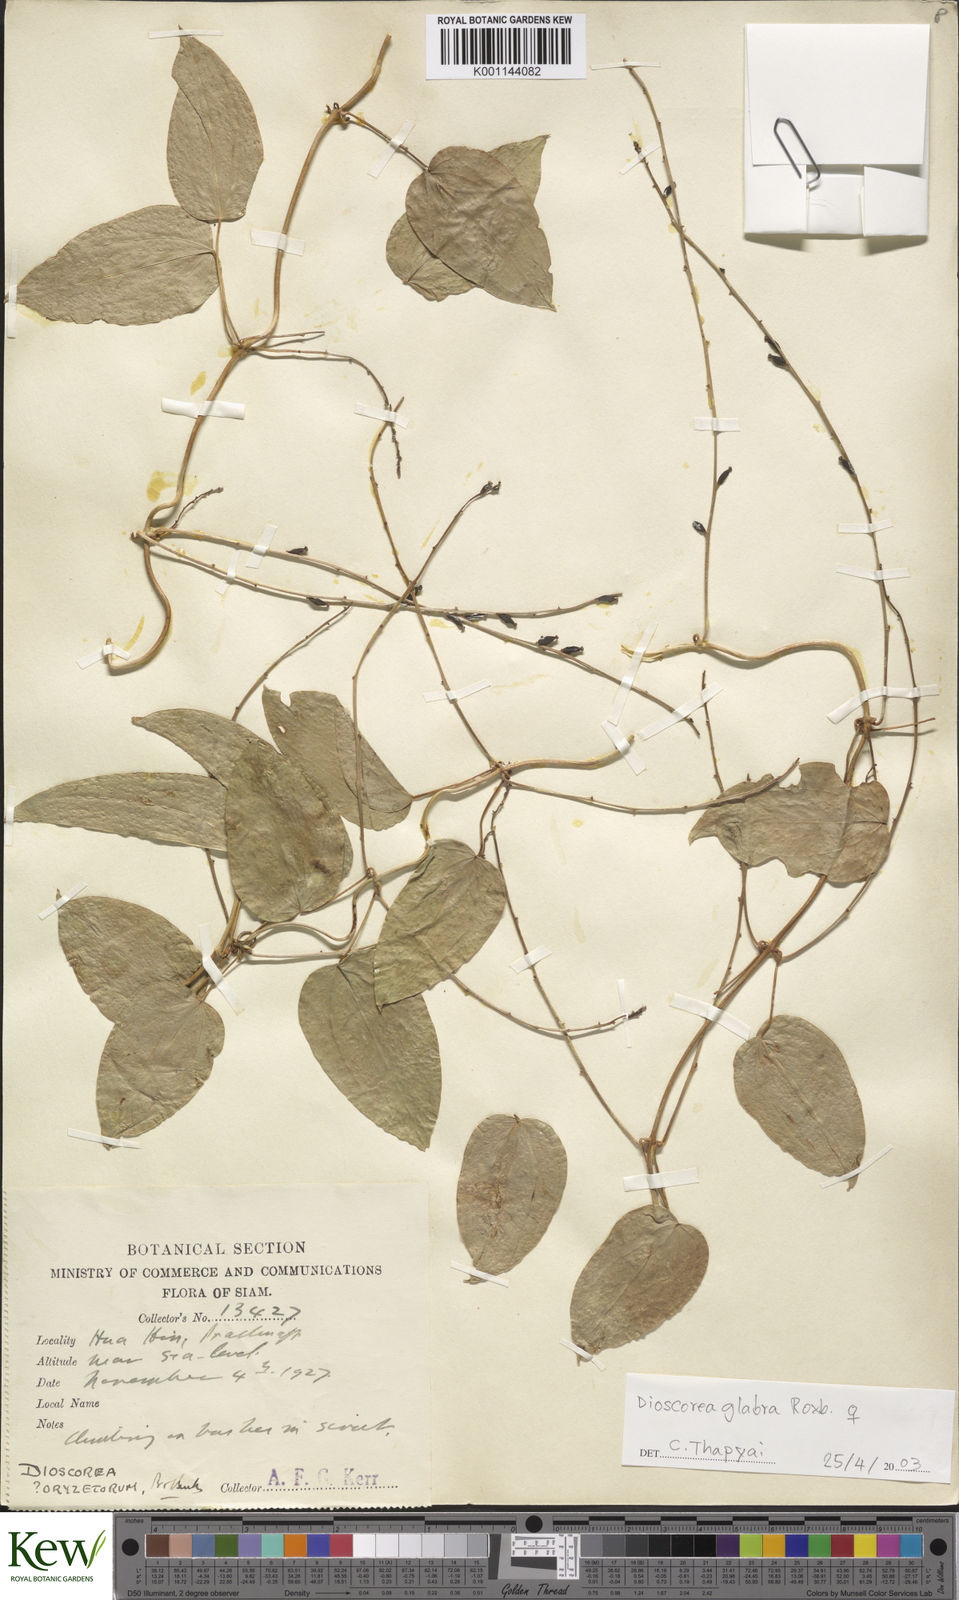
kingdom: Plantae
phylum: Tracheophyta
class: Liliopsida
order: Dioscoreales
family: Dioscoreaceae
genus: Dioscorea
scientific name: Dioscorea glabra
